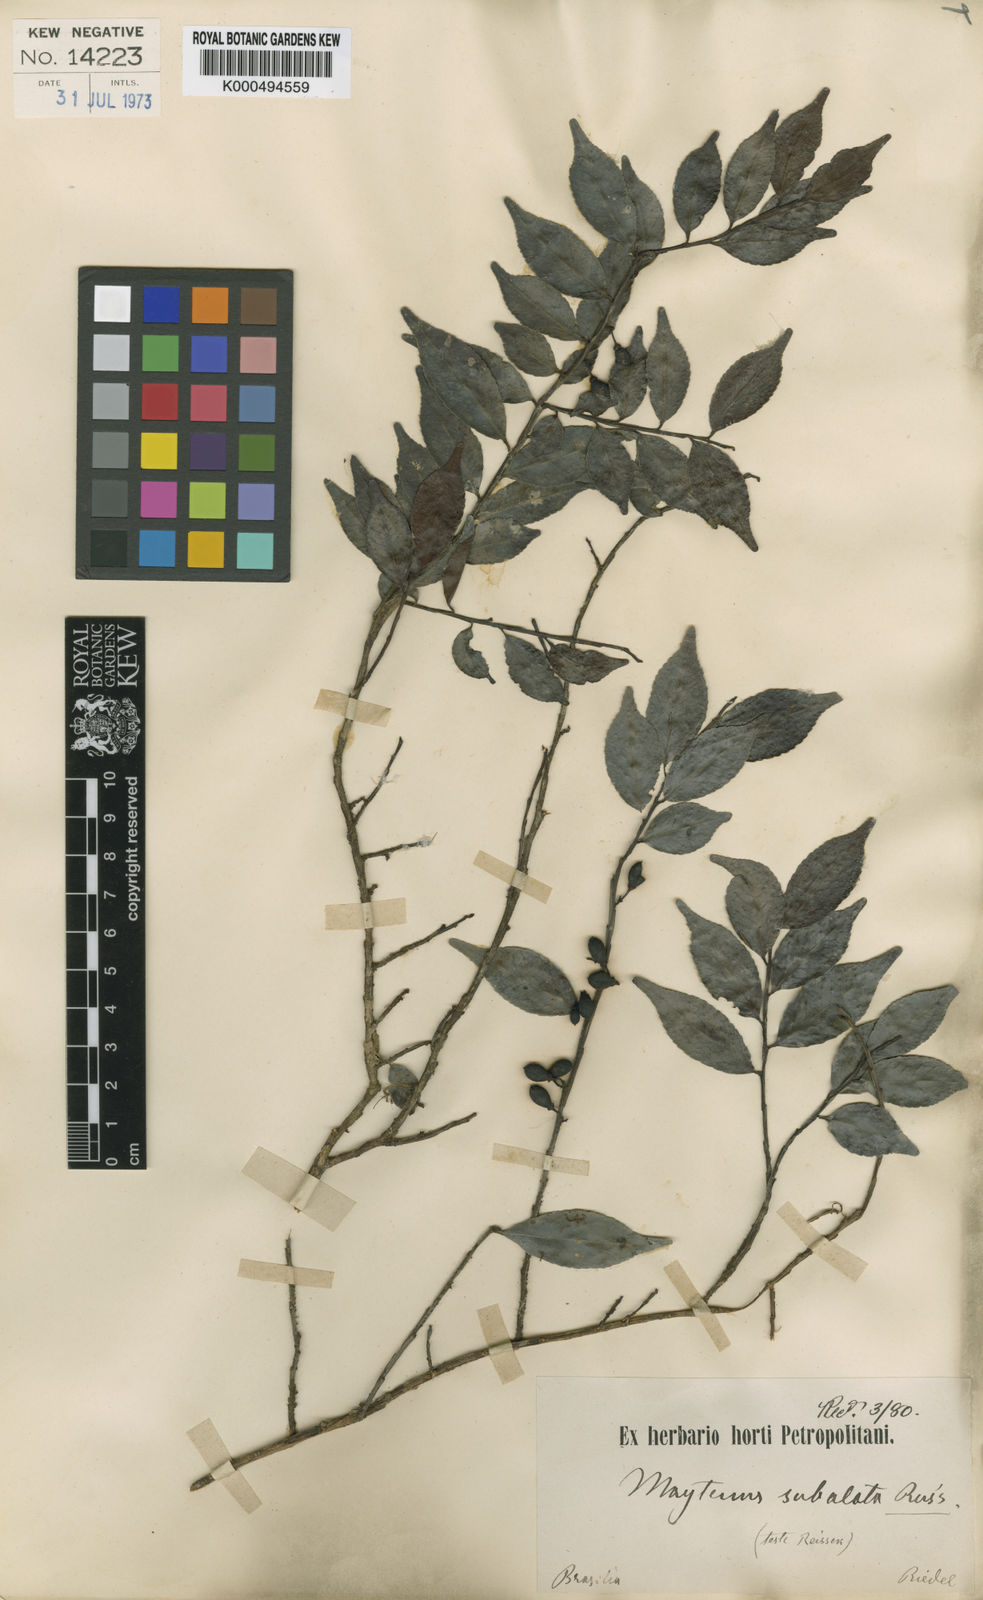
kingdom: Plantae
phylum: Tracheophyta
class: Magnoliopsida
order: Celastrales
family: Celastraceae
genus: Monteverdia
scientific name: Monteverdia subalata
